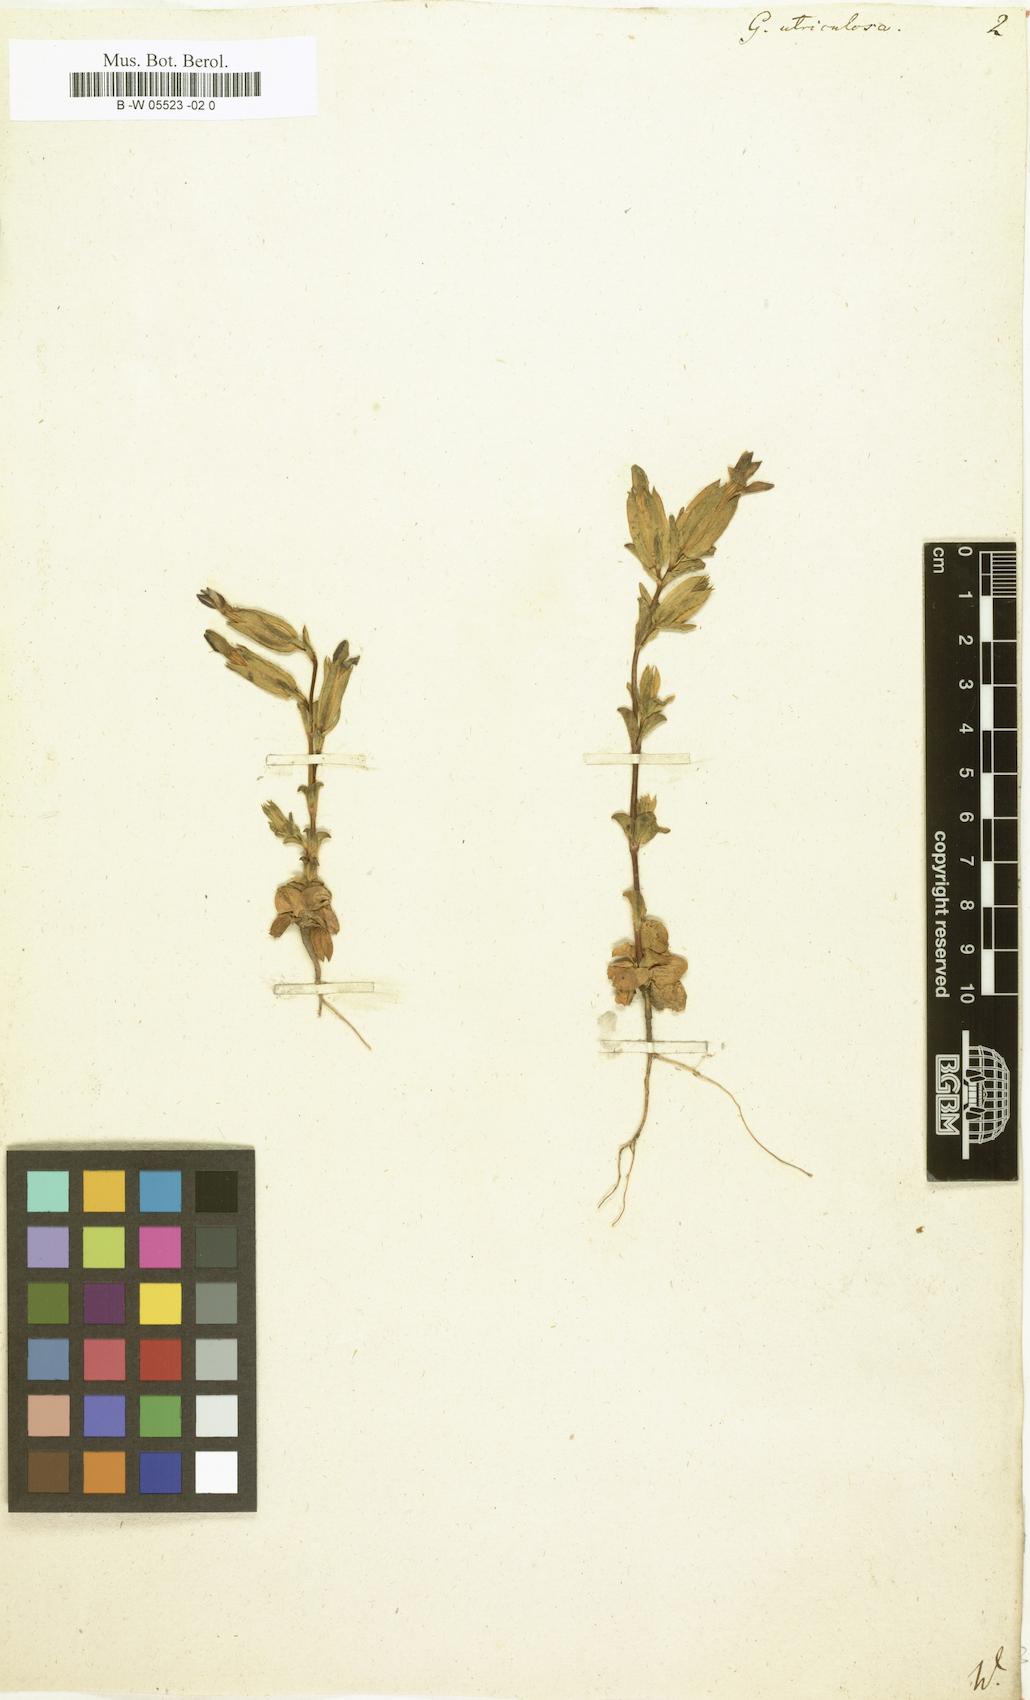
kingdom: Plantae
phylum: Tracheophyta
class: Magnoliopsida
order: Gentianales
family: Gentianaceae
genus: Gentiana
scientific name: Gentiana utriculosa
